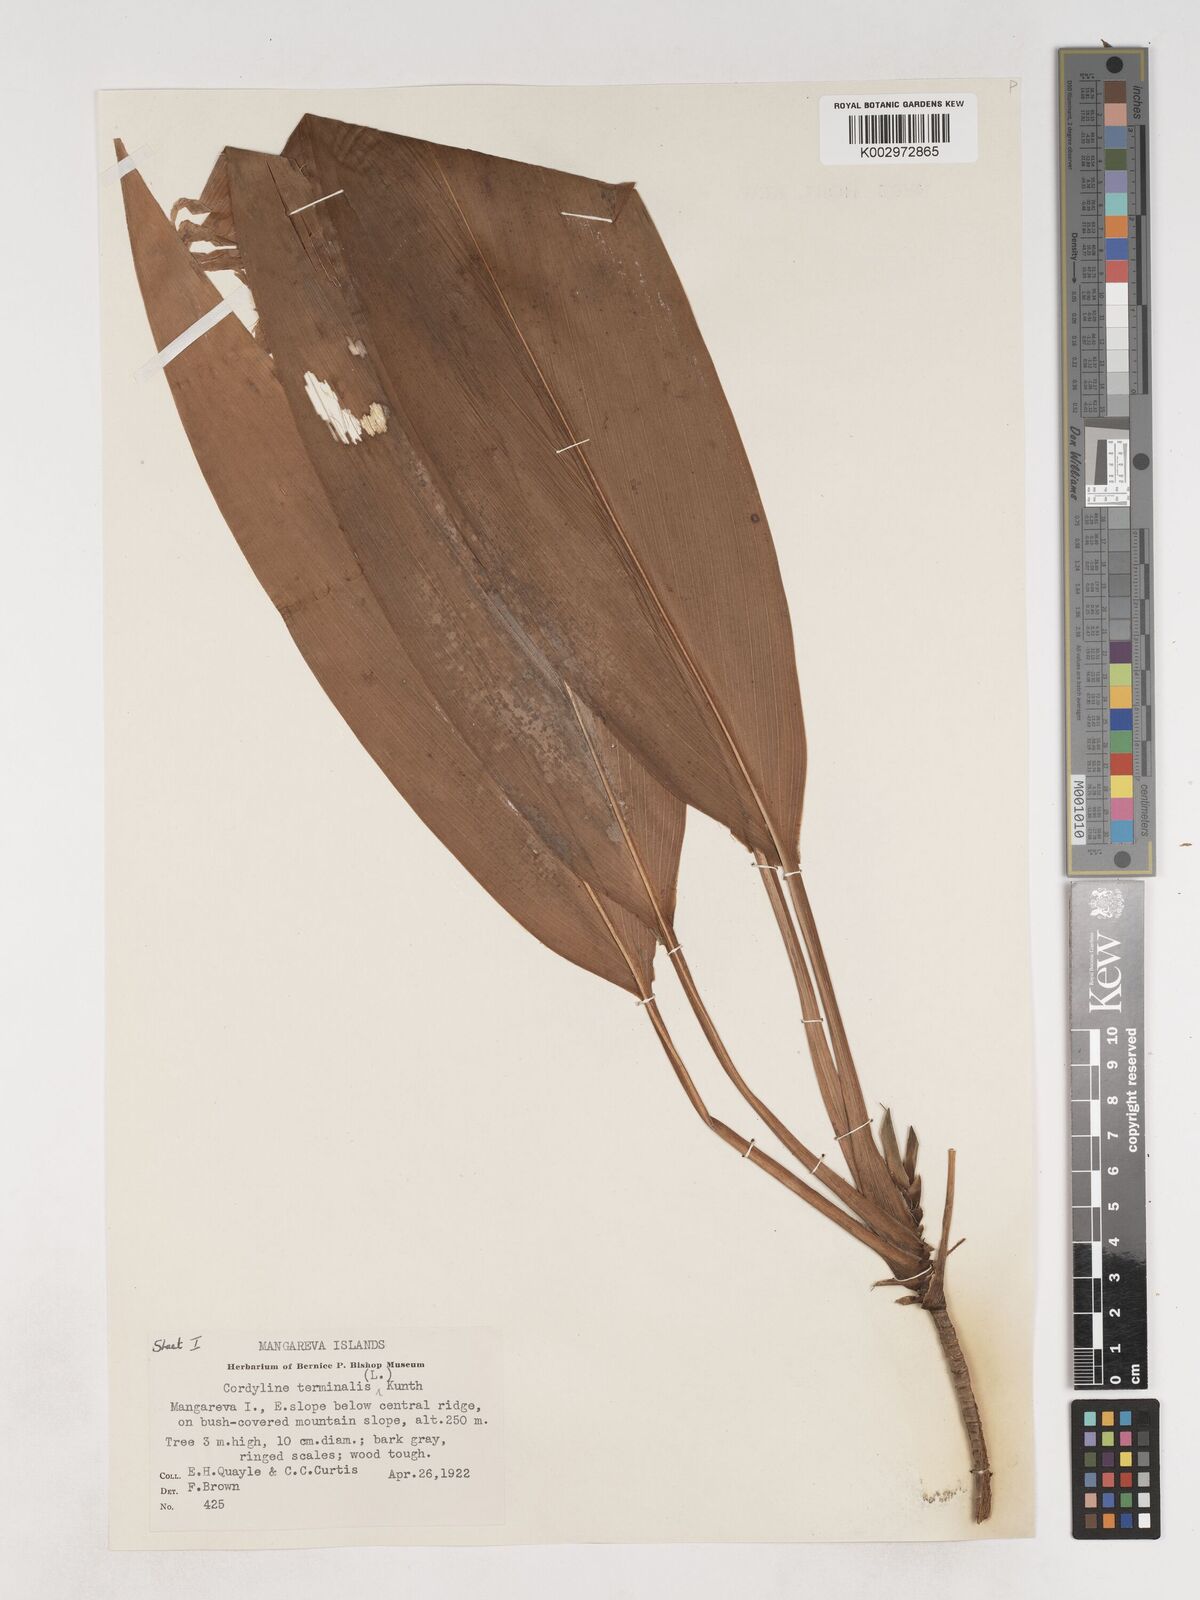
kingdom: Plantae
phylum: Tracheophyta
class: Liliopsida
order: Asparagales
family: Asparagaceae
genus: Cordyline
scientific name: Cordyline fruticosa
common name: Good-luck-plant
